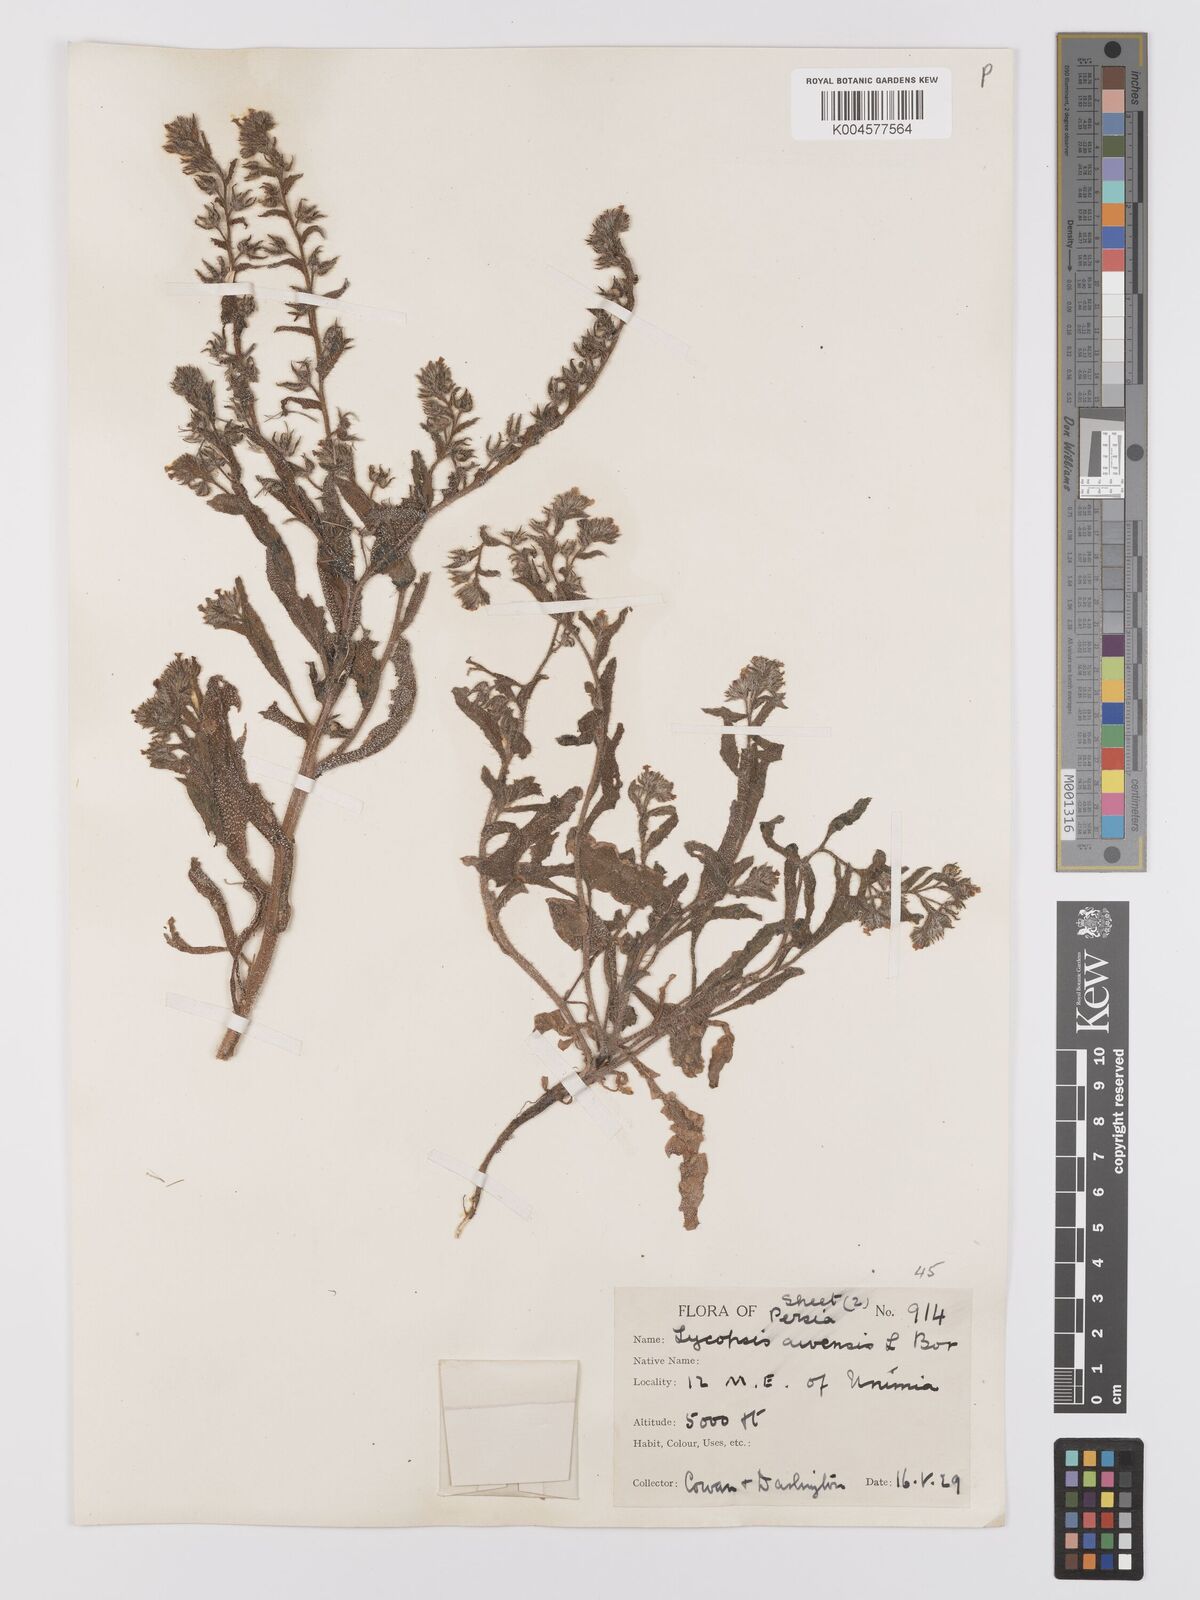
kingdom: Plantae
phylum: Tracheophyta
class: Magnoliopsida
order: Boraginales
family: Boraginaceae
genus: Lycopsis
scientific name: Lycopsis arvensis
